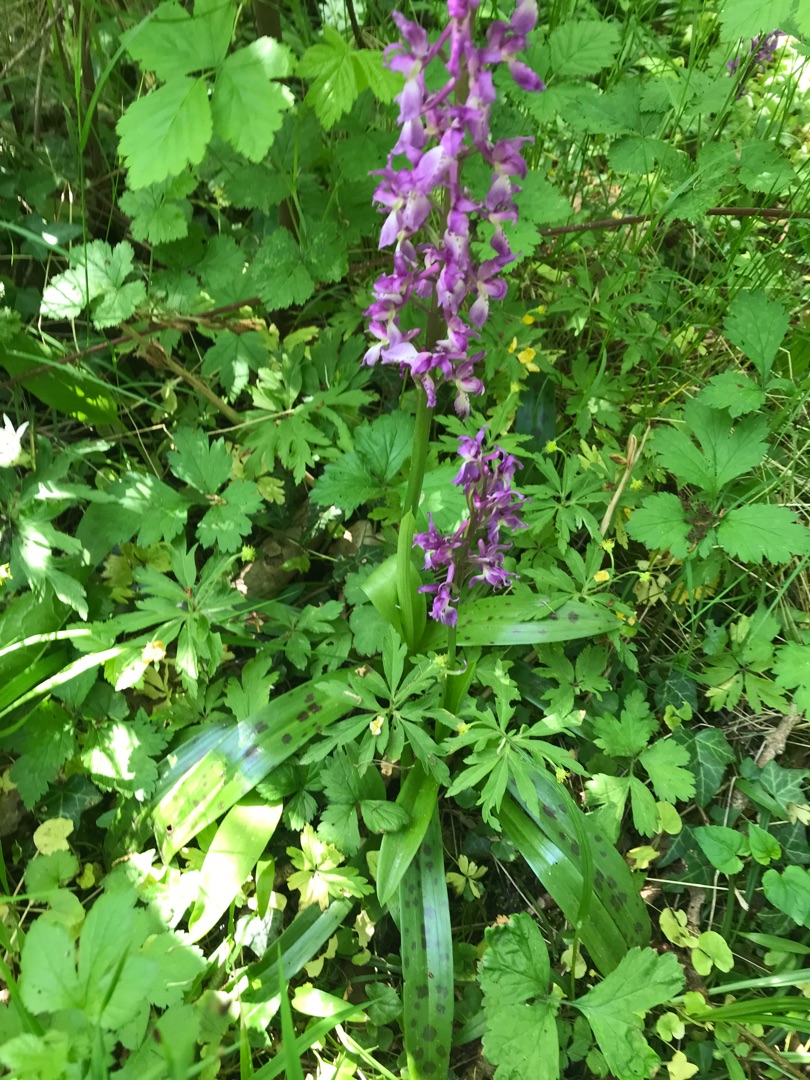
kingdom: Plantae
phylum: Tracheophyta
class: Liliopsida
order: Asparagales
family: Orchidaceae
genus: Orchis
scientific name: Orchis mascula
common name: Tyndakset gøgeurt
